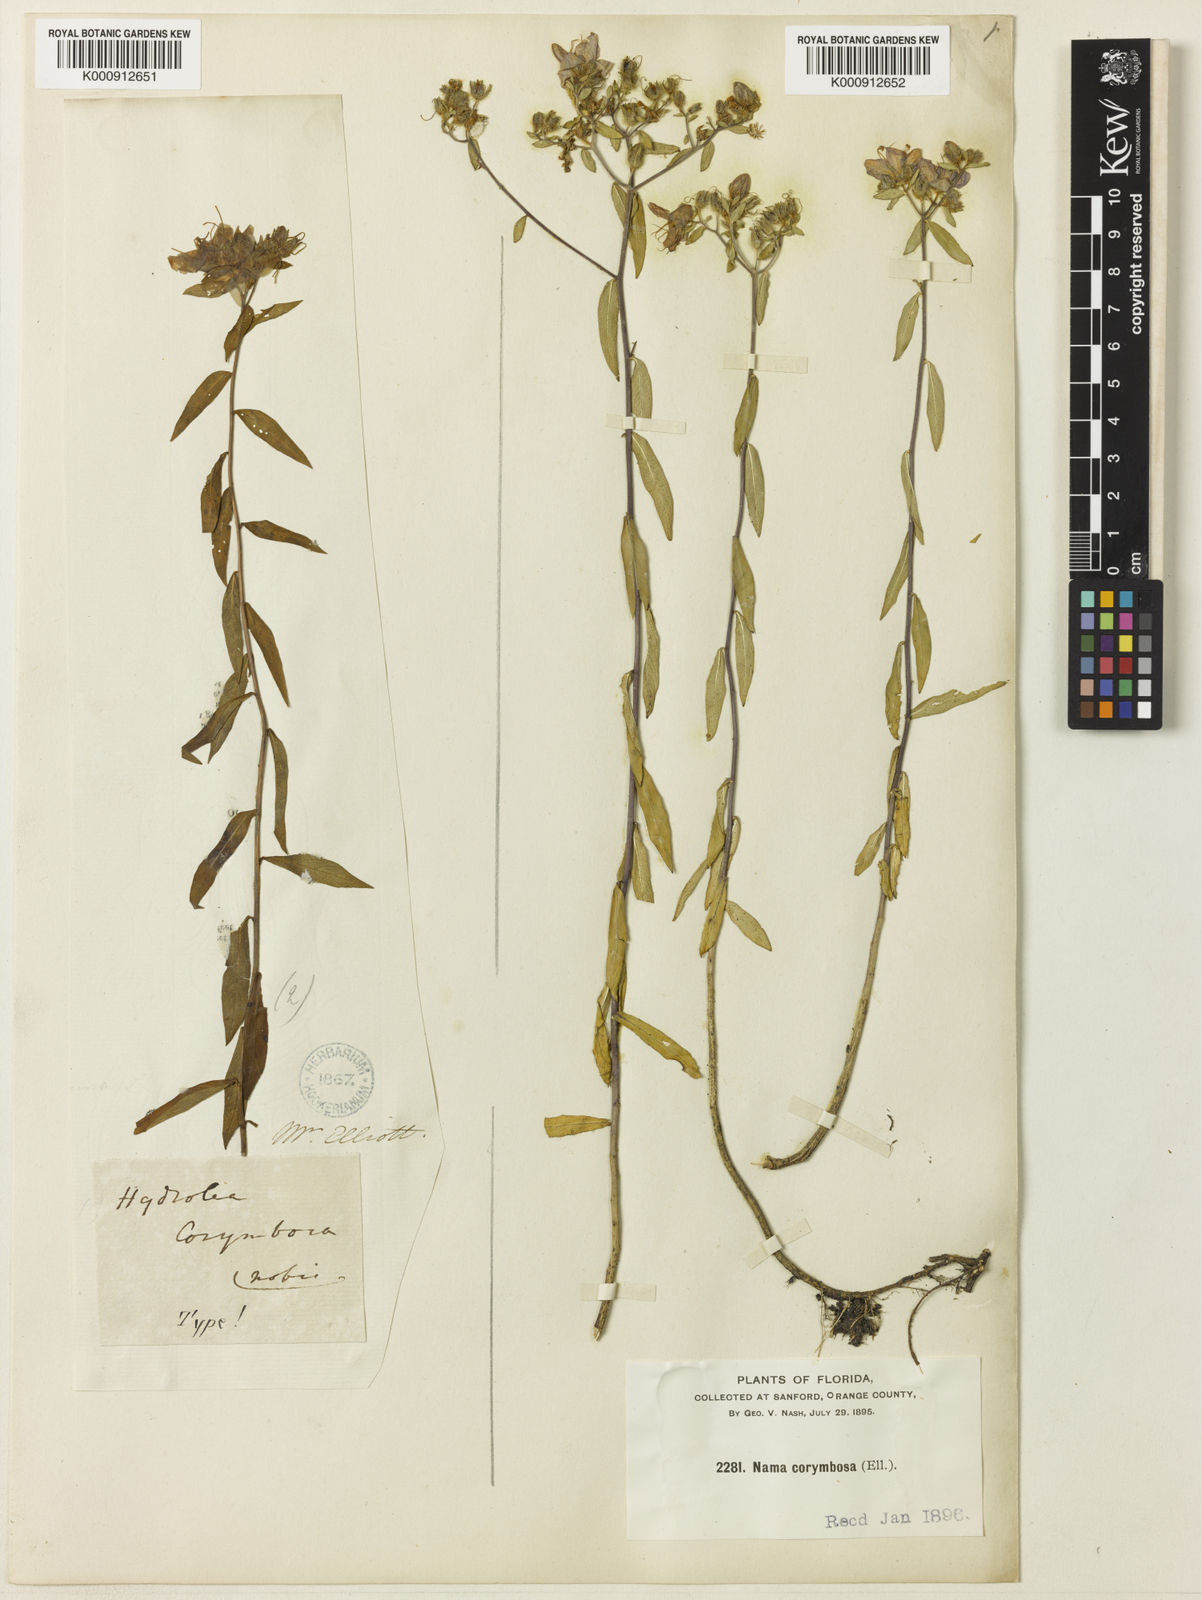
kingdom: Plantae
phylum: Tracheophyta
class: Magnoliopsida
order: Solanales
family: Hydroleaceae
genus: Hydrolea
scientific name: Hydrolea corymbosa
